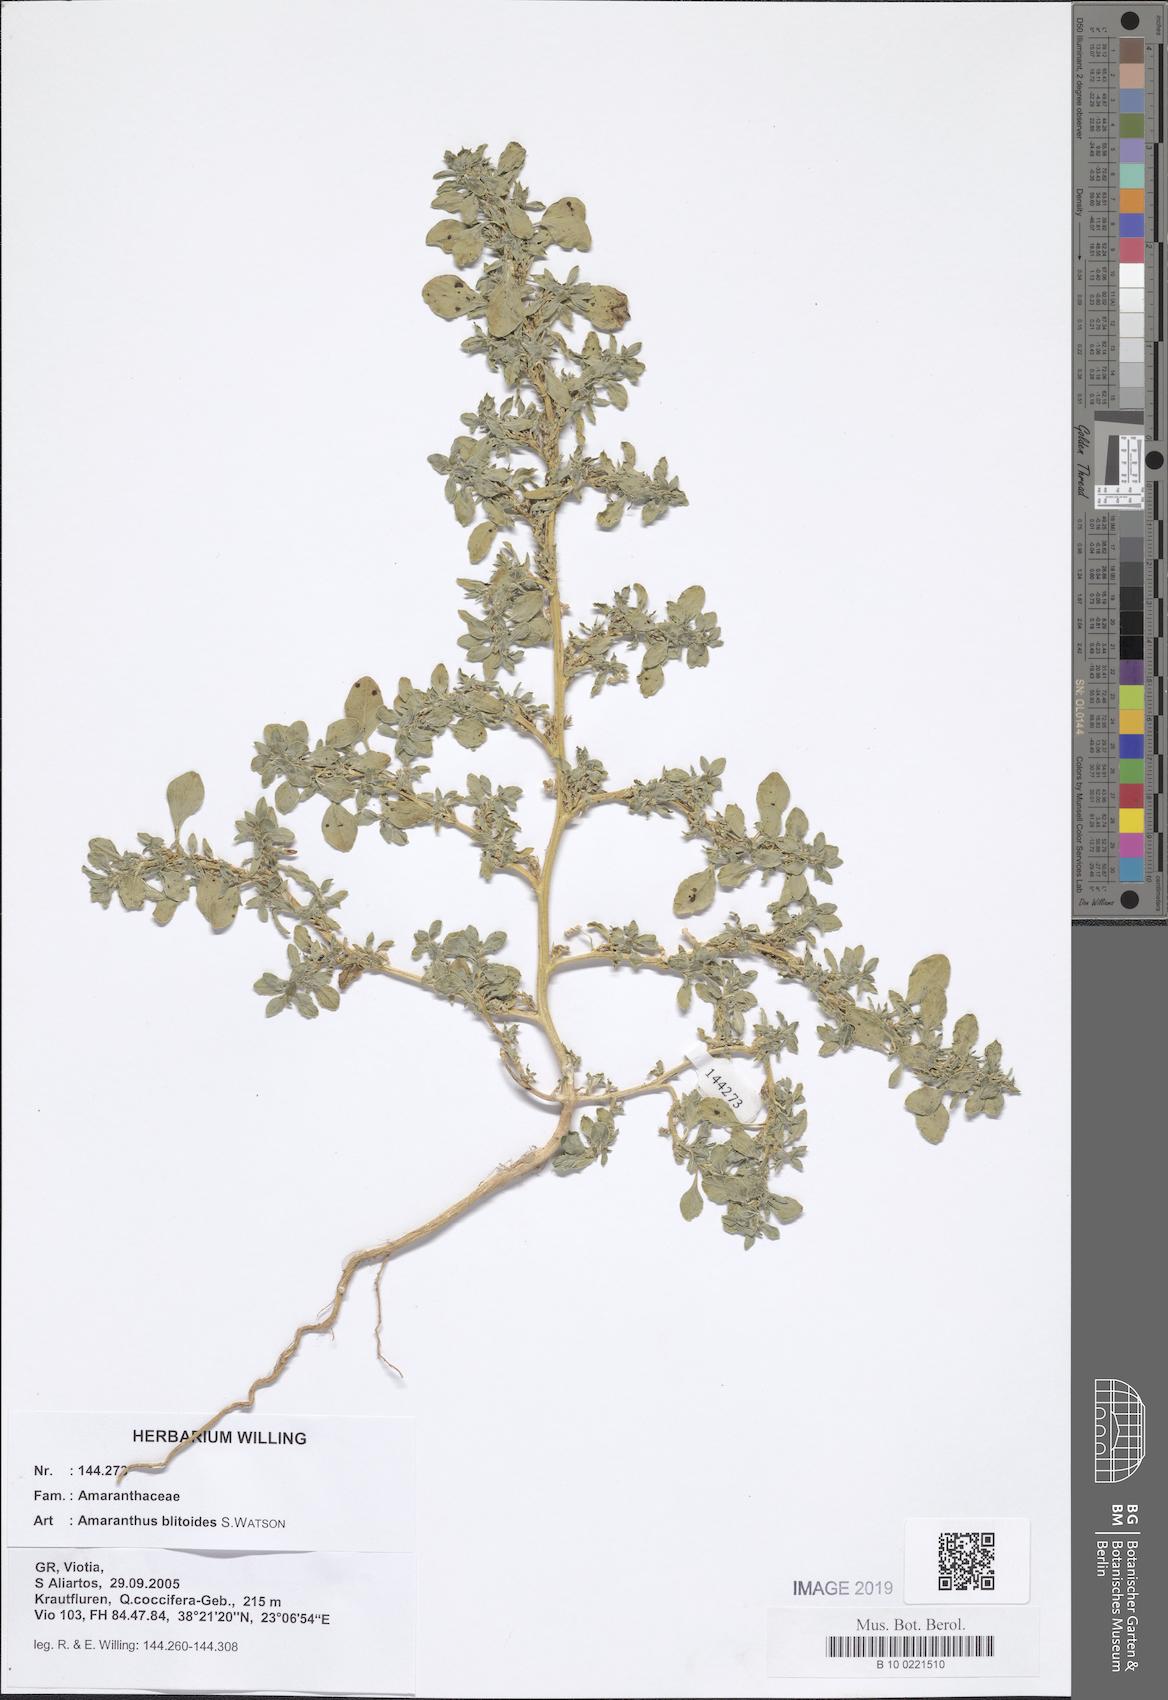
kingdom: Plantae
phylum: Tracheophyta
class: Magnoliopsida
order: Caryophyllales
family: Amaranthaceae
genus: Amaranthus
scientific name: Amaranthus blitoides
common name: Prostrate pigweed
